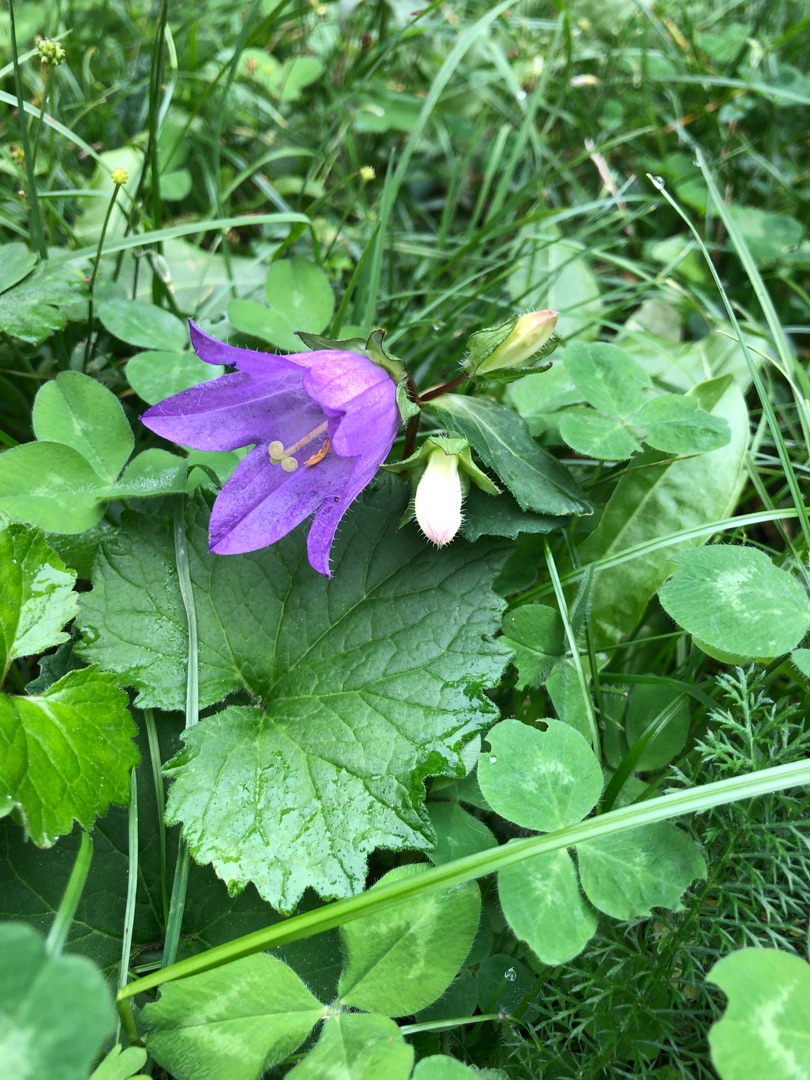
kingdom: Plantae
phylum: Tracheophyta
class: Magnoliopsida
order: Asterales
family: Campanulaceae
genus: Campanula
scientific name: Campanula trachelium
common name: Nælde-klokke
